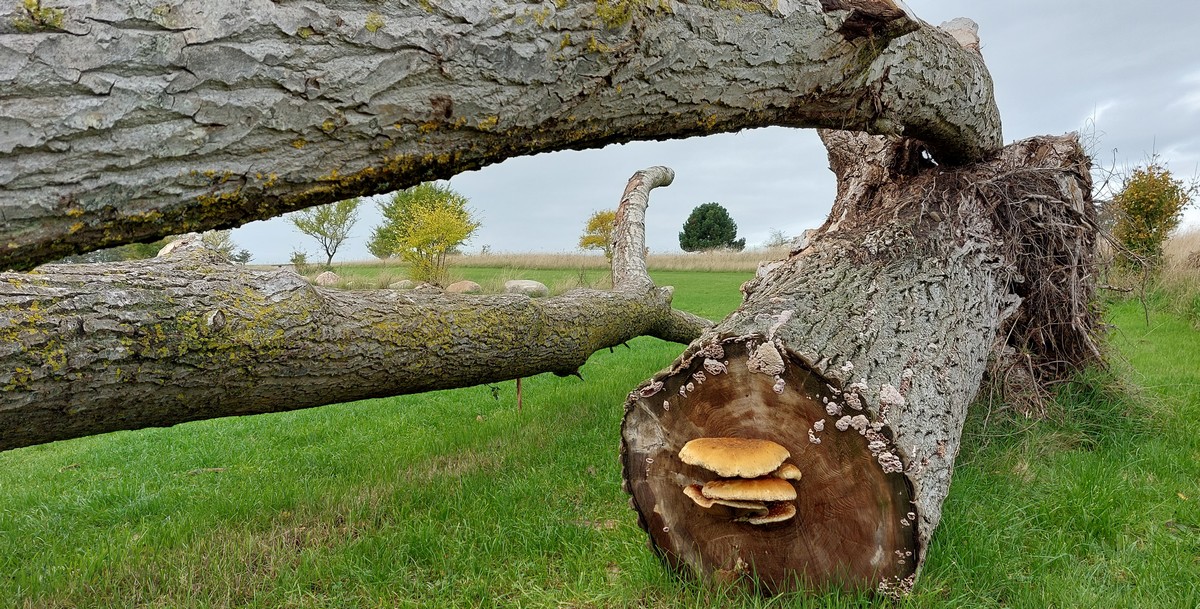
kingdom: Fungi
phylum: Basidiomycota
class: Agaricomycetes
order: Agaricales
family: Strophariaceae
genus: Pholiota
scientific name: Pholiota populnea
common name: poppel-kæmpeskælhat
